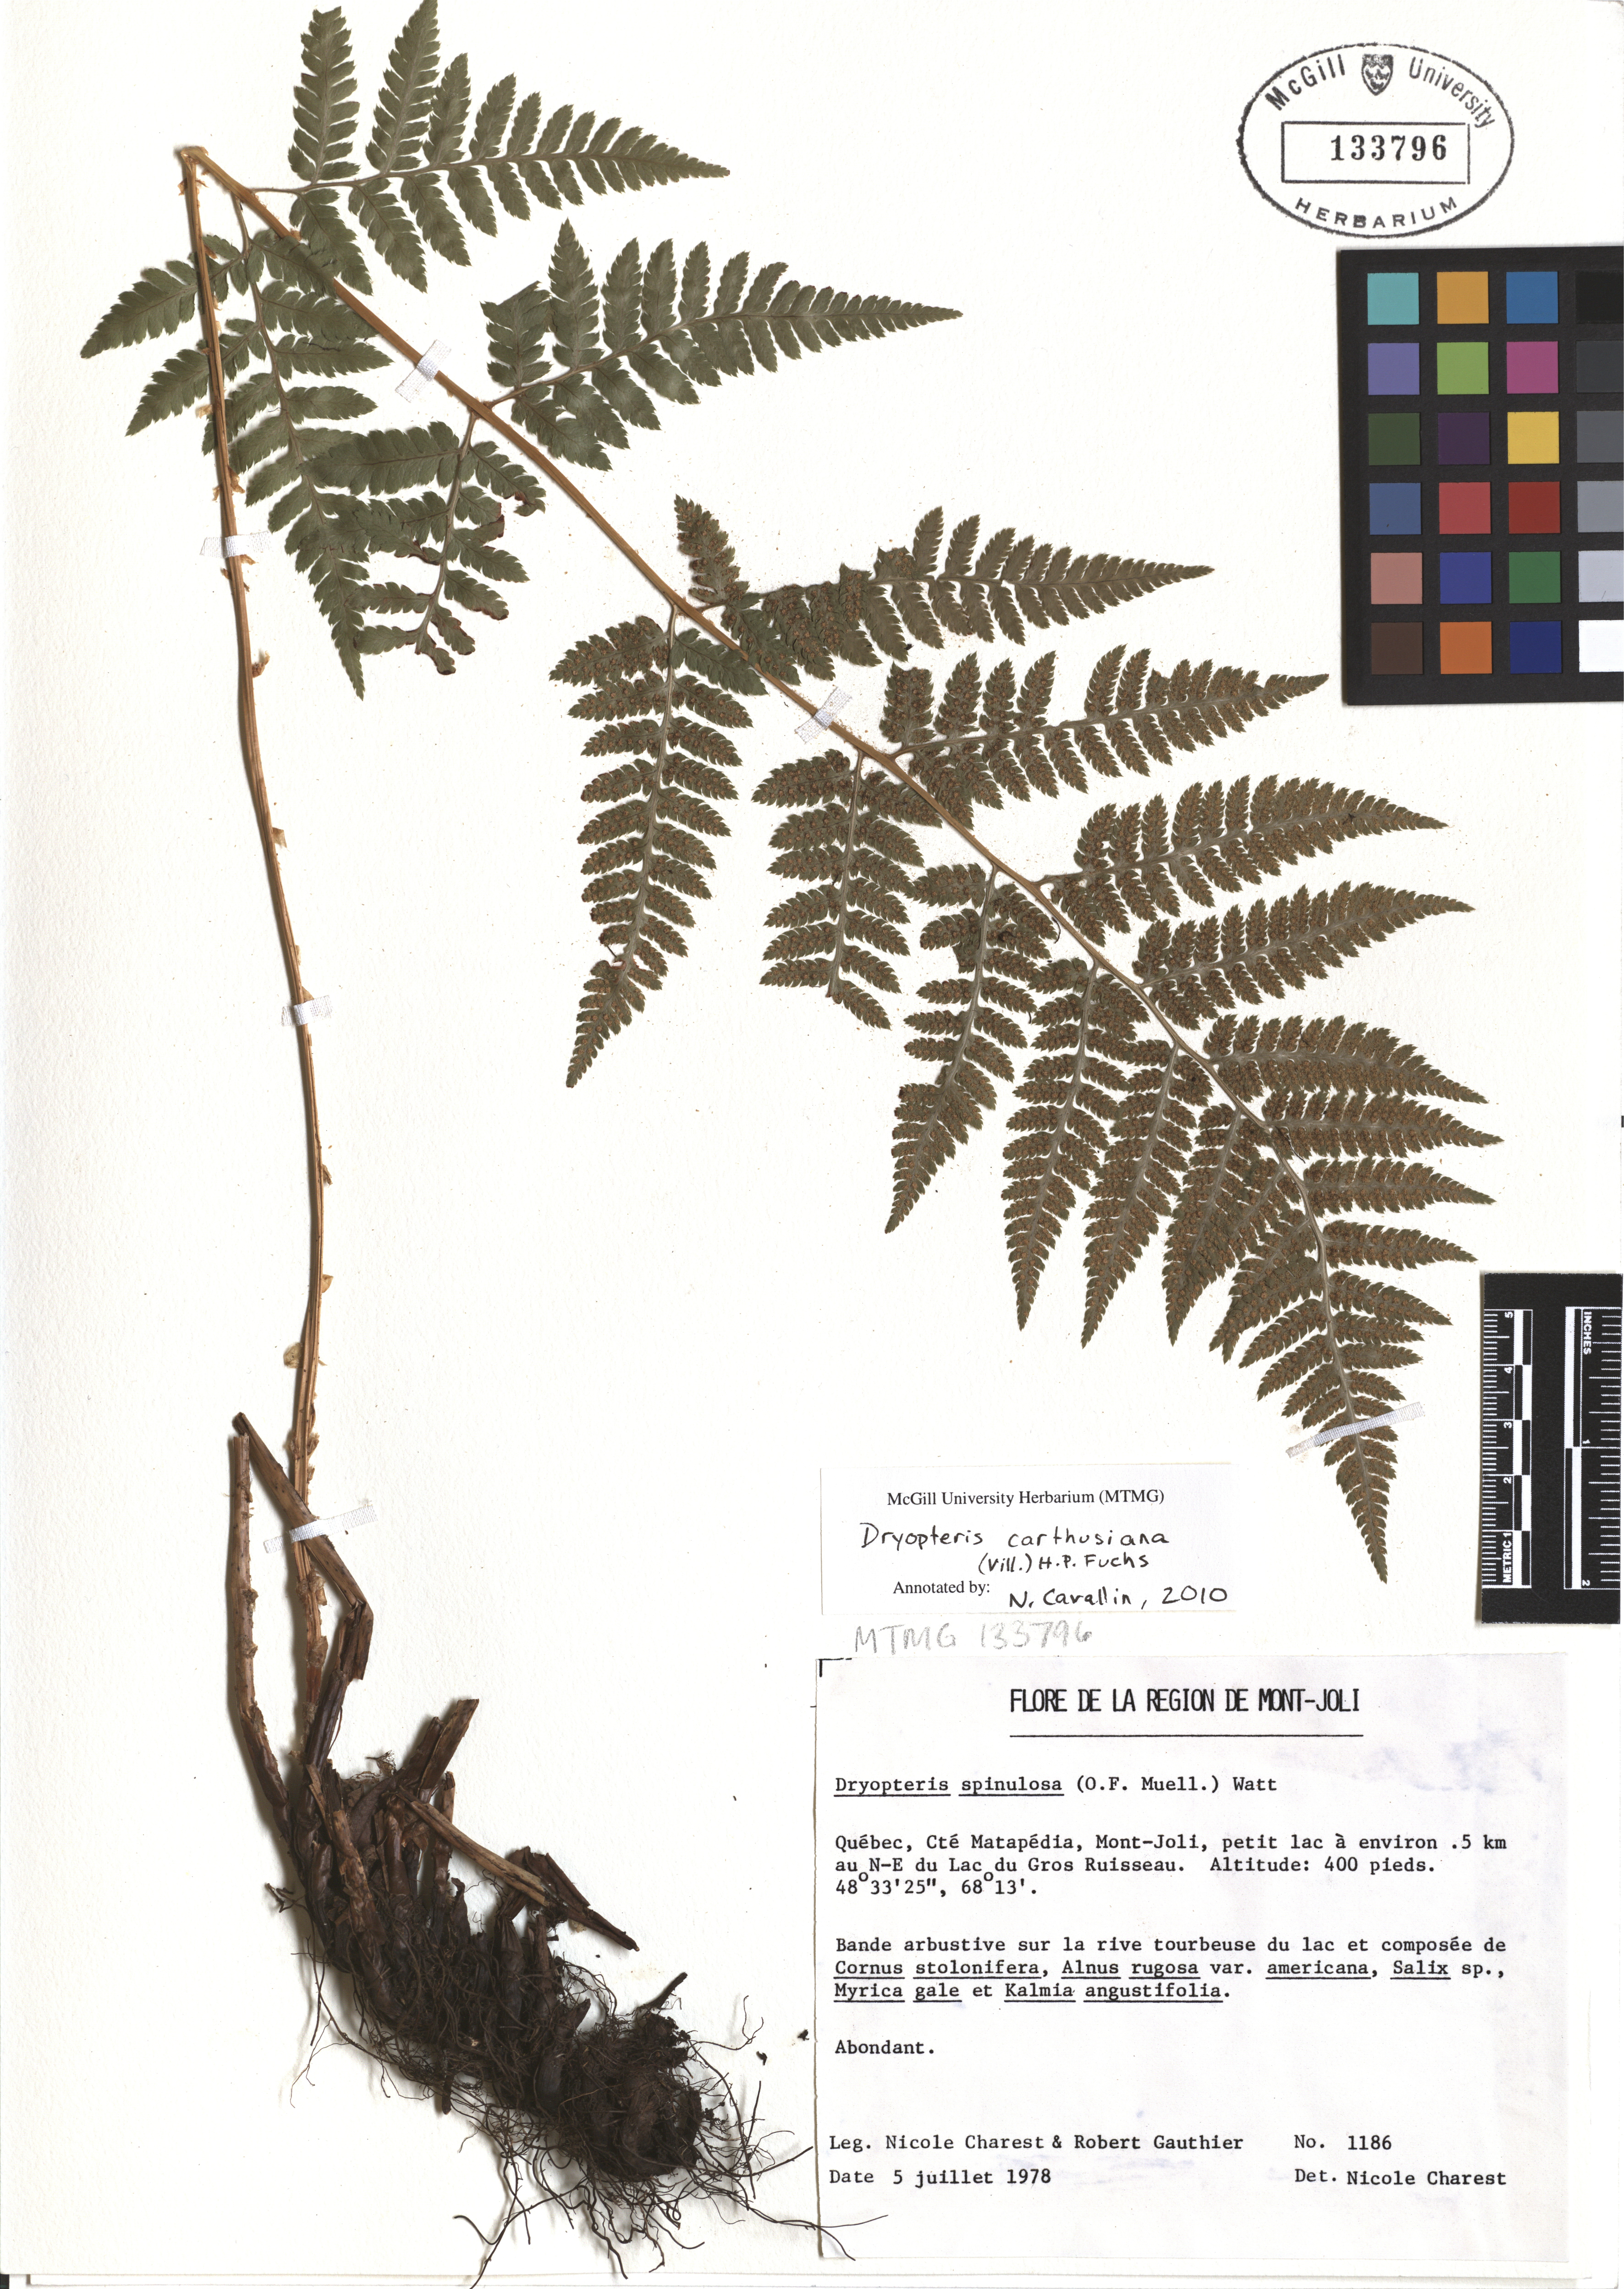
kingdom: Plantae
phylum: Tracheophyta
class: Polypodiopsida
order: Polypodiales
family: Dryopteridaceae
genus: Dryopteris
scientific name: Dryopteris carthusiana
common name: Narrow buckler-fern
